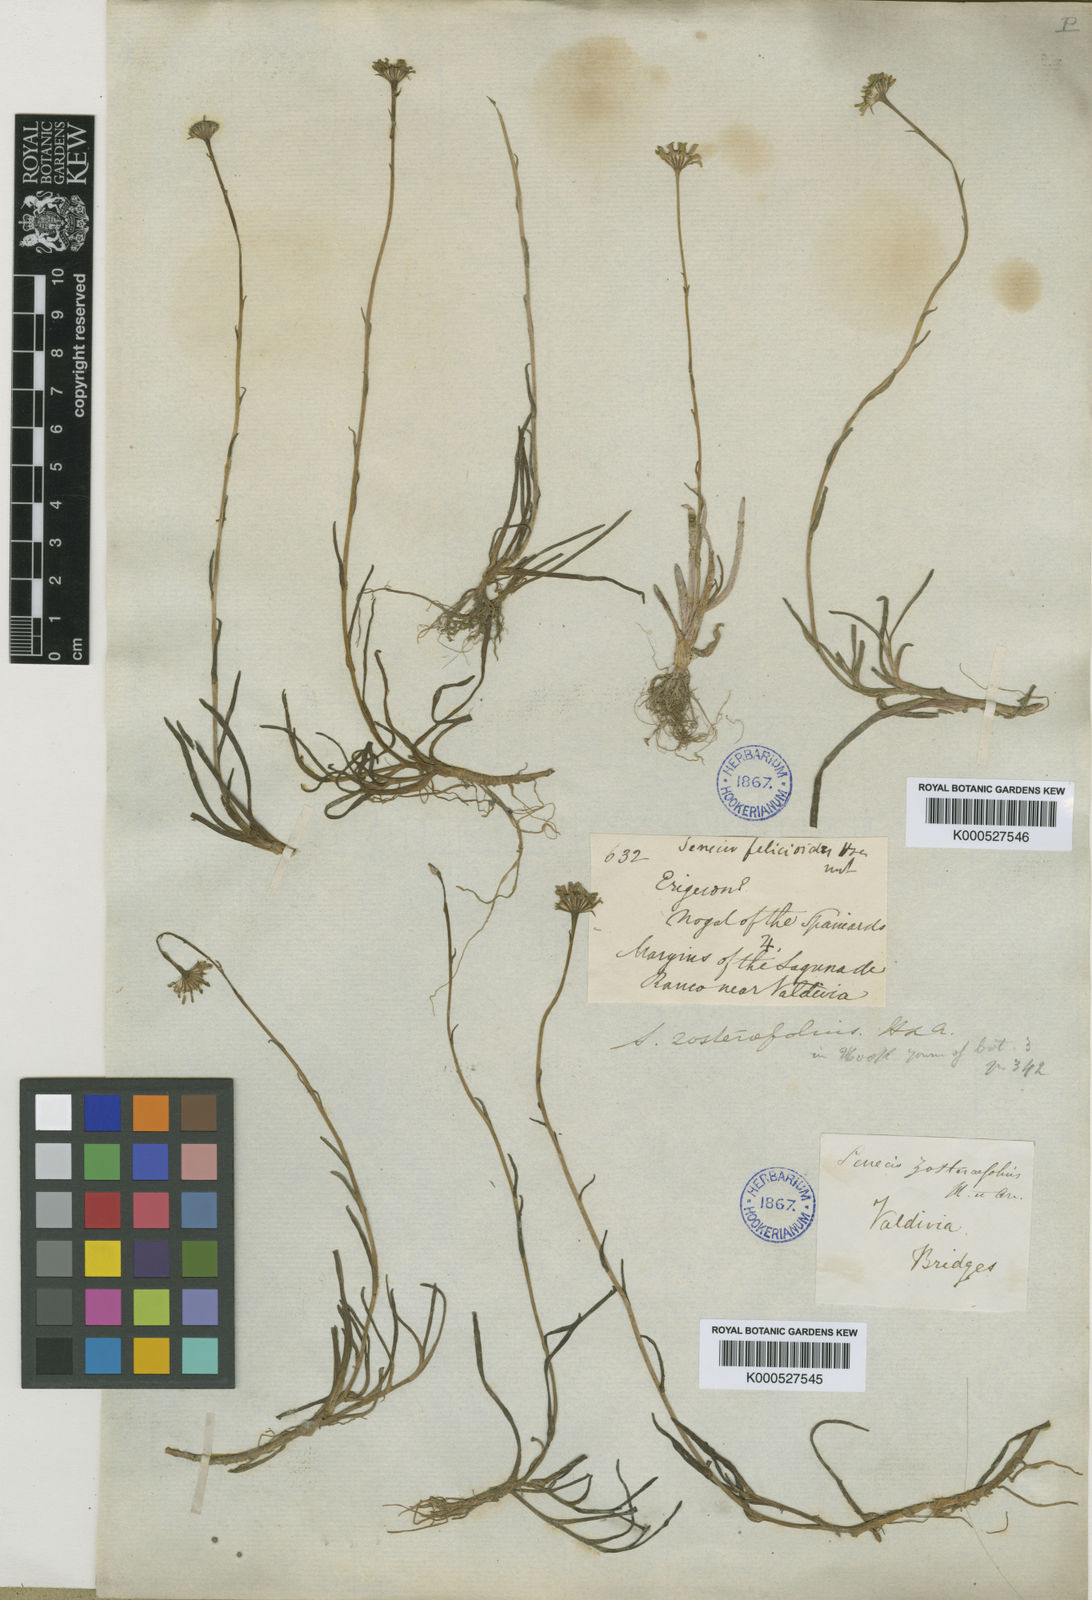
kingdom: Plantae
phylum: Tracheophyta
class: Magnoliopsida
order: Asterales
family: Asteraceae
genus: Haplosticha
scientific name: Haplosticha zosterifolia
